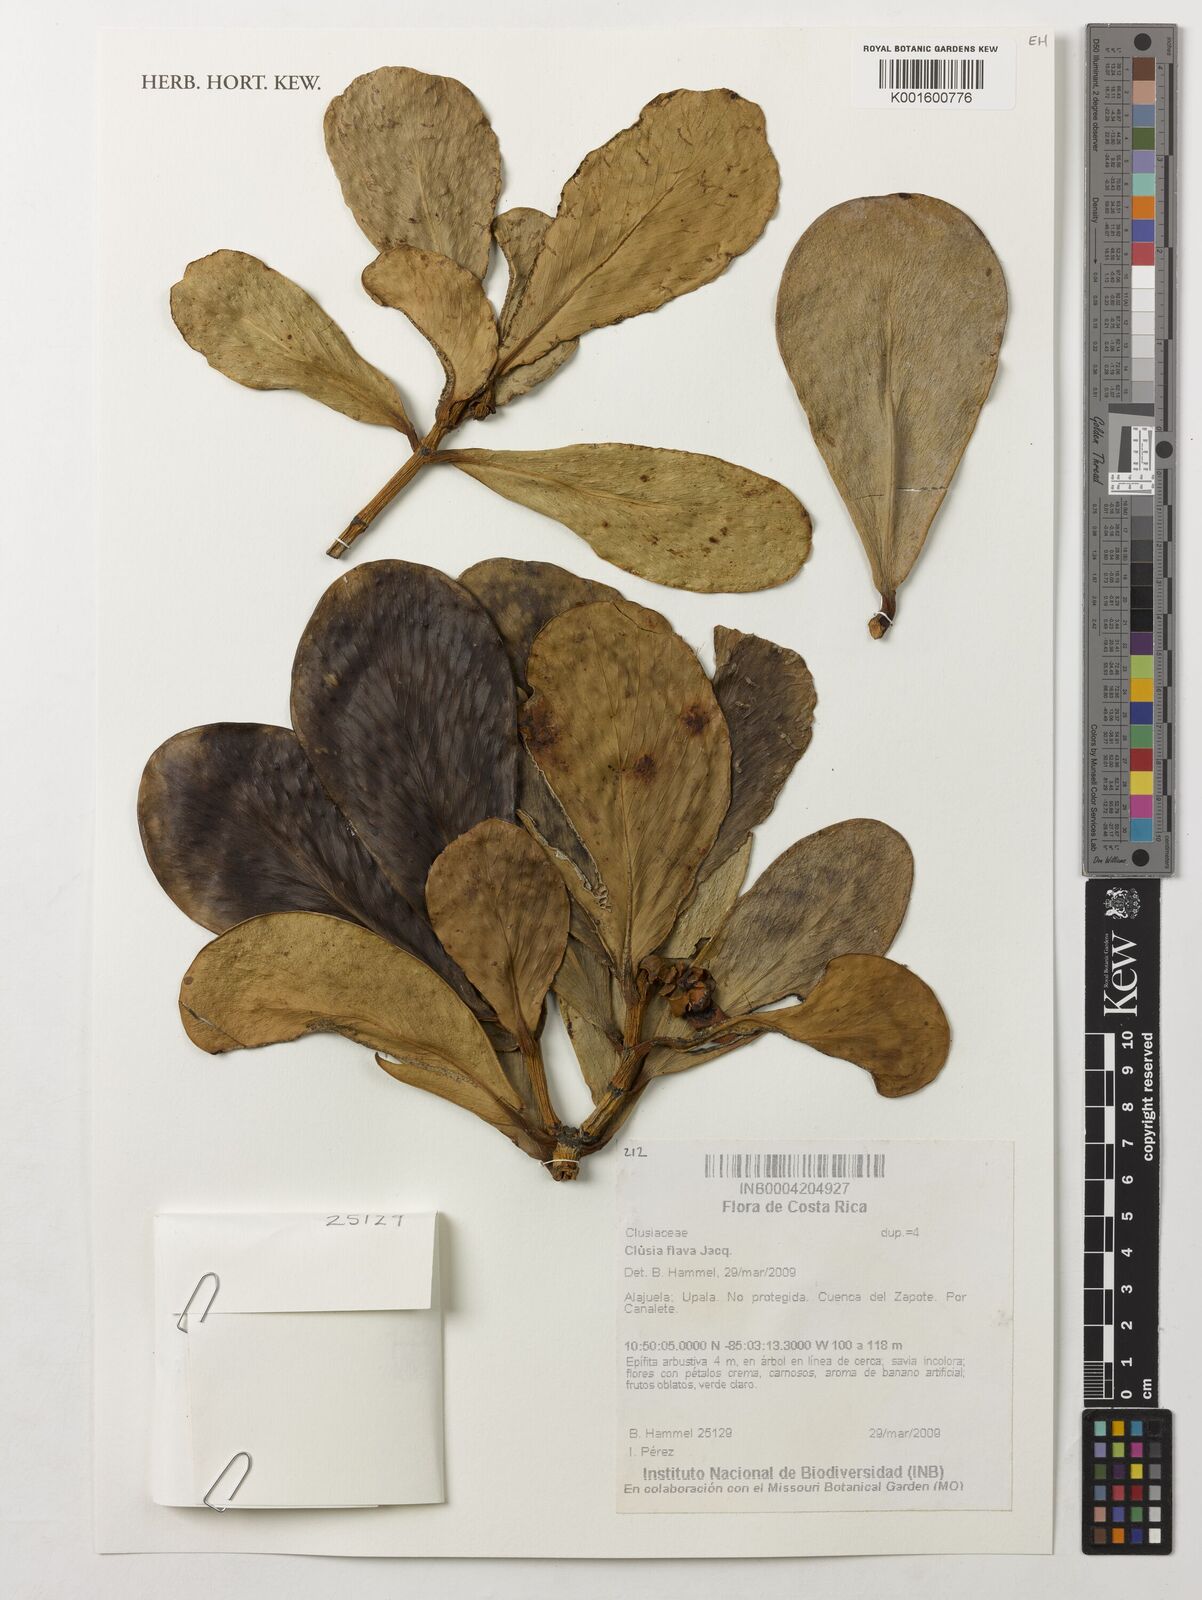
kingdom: Plantae
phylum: Tracheophyta
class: Magnoliopsida
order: Malpighiales
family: Clusiaceae
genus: Clusia
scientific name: Clusia flava
